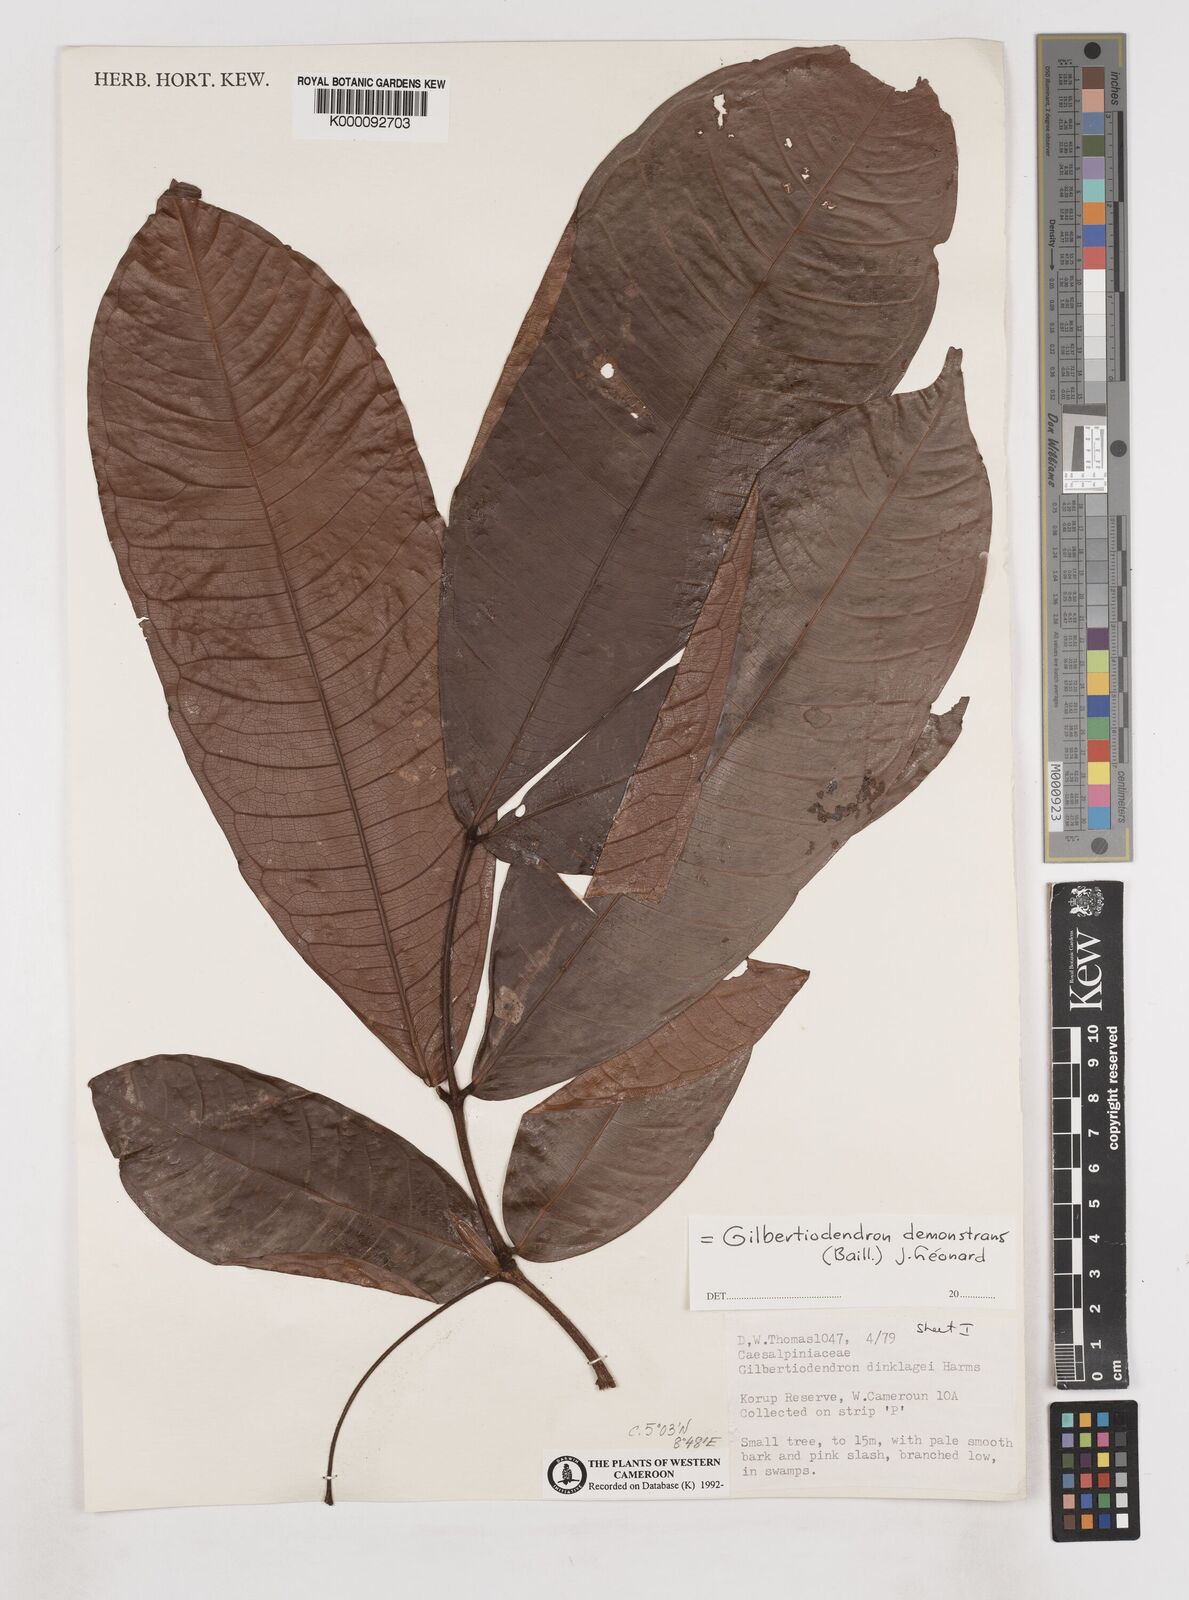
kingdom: Plantae
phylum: Tracheophyta
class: Magnoliopsida
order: Fabales
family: Fabaceae
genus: Gilbertiodendron
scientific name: Gilbertiodendron
